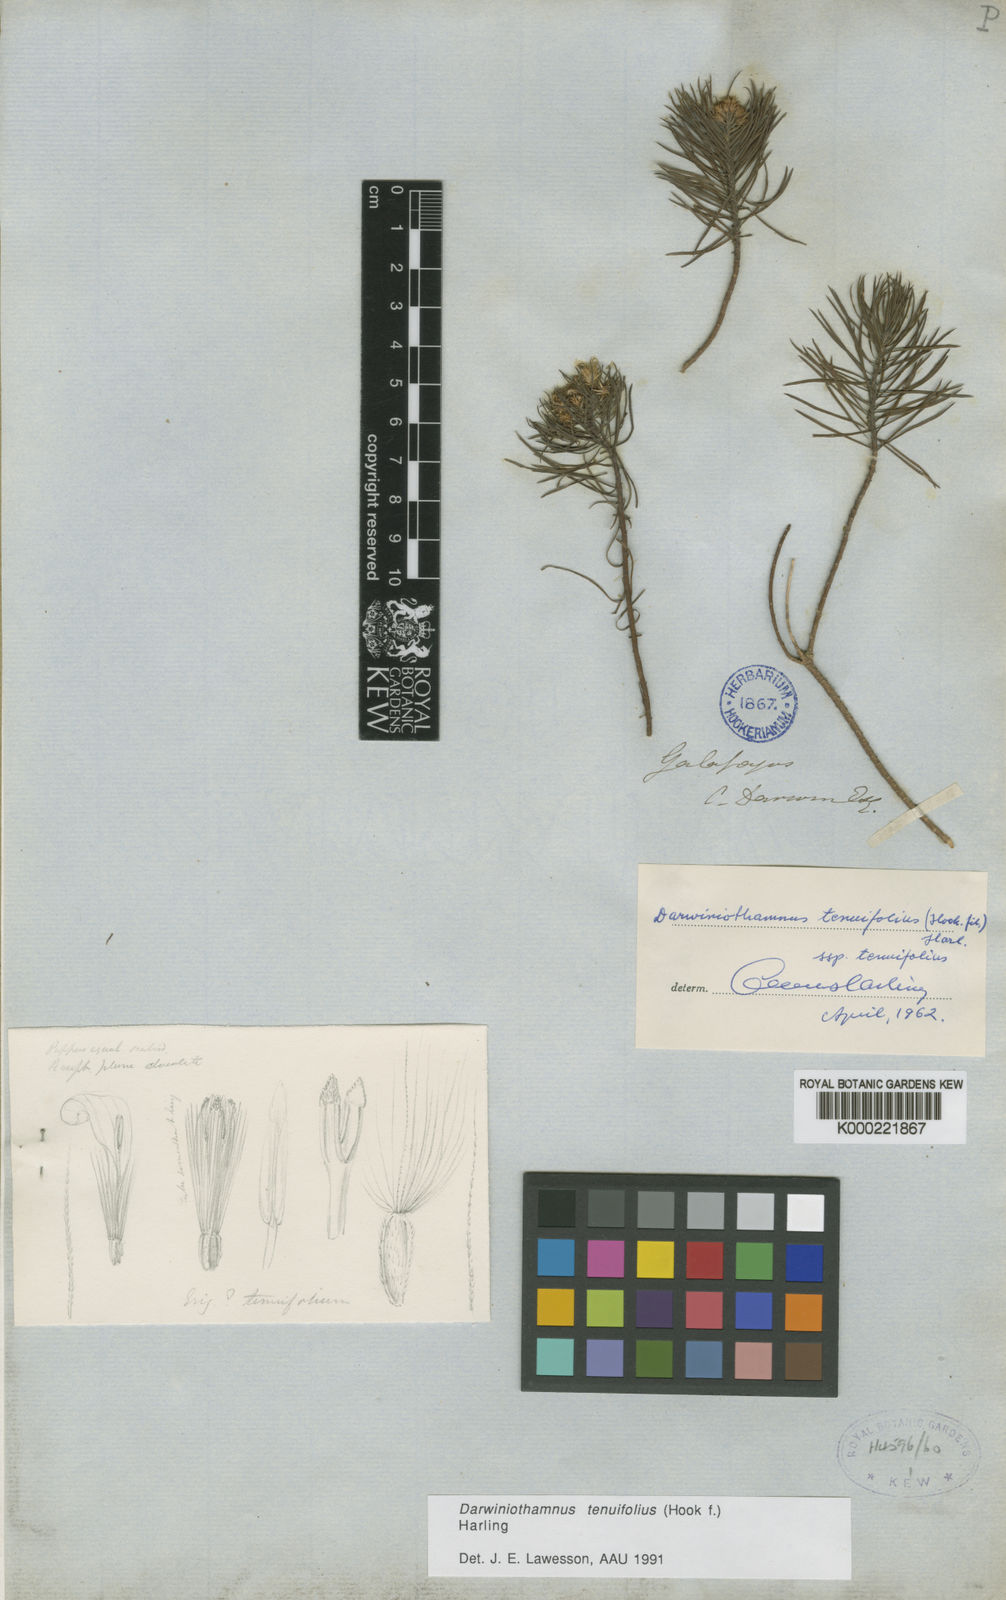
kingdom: Plantae
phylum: Tracheophyta
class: Magnoliopsida
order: Asterales
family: Asteraceae
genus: Erigeron
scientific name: Erigeron tenuifolius
